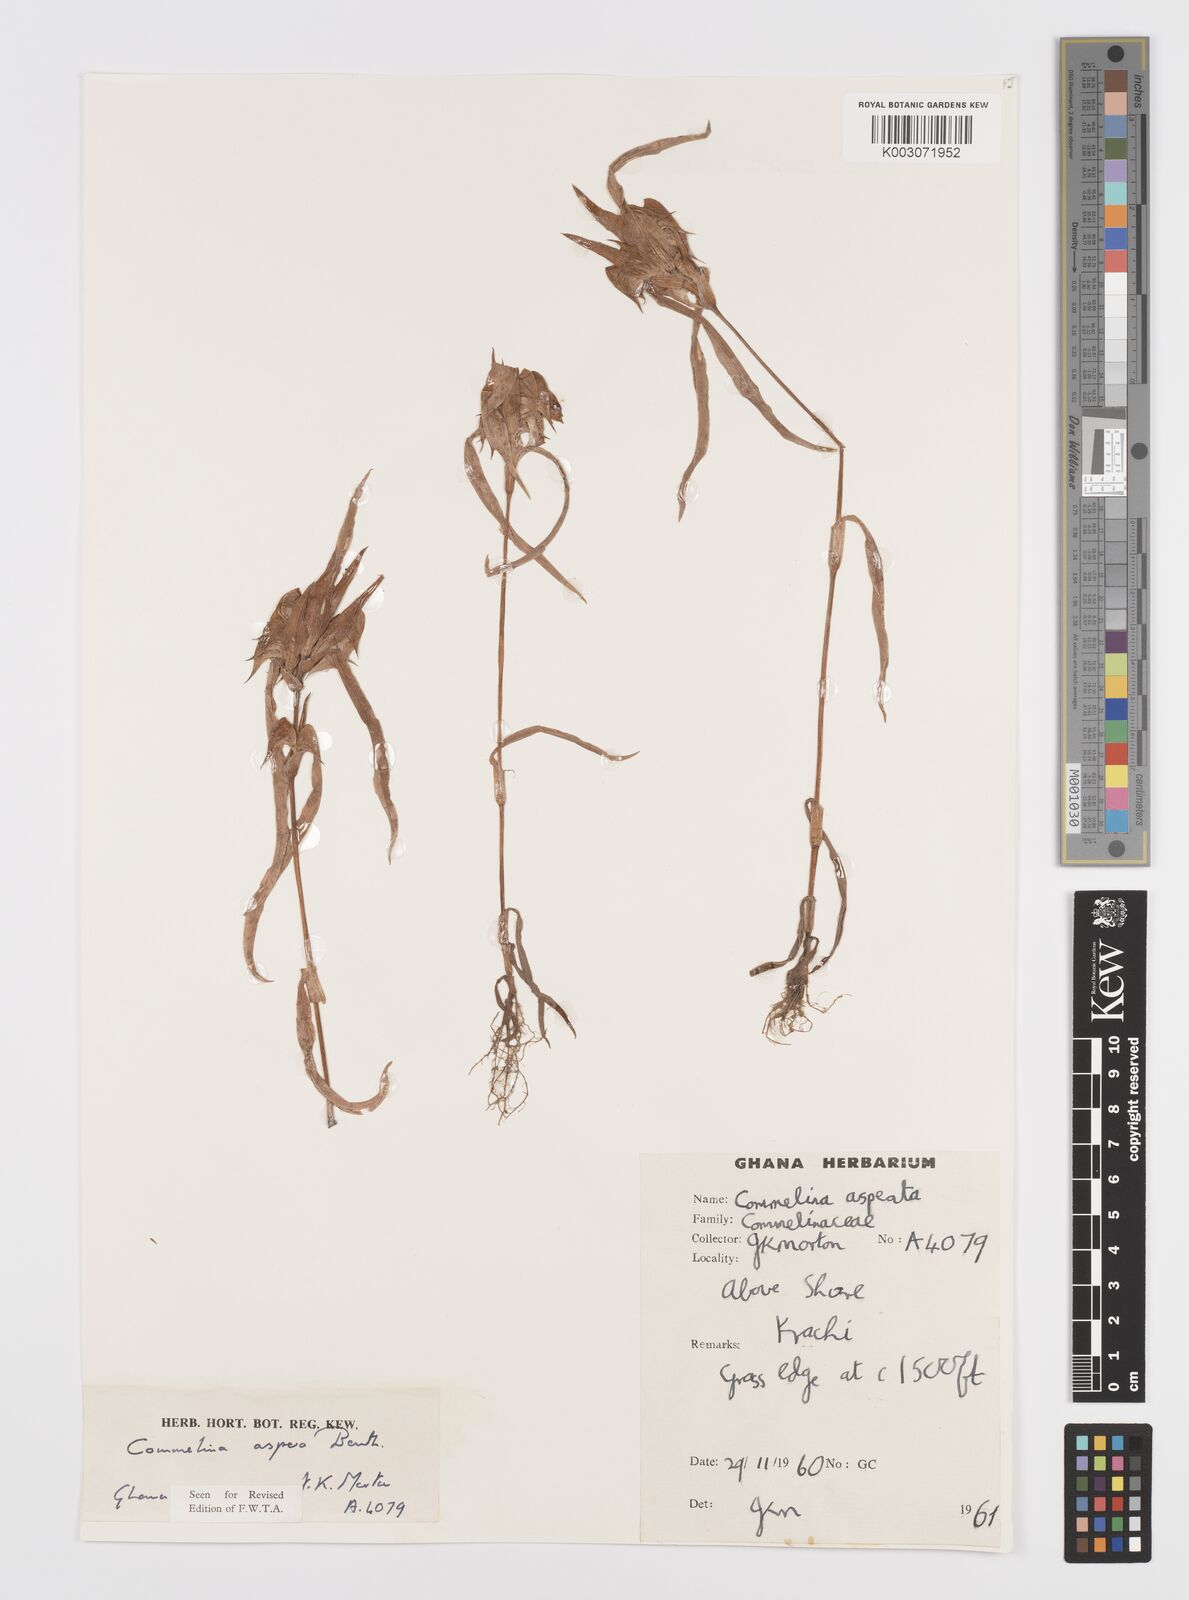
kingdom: Plantae
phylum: Tracheophyta
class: Liliopsida
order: Commelinales
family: Commelinaceae
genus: Commelina
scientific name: Commelina aspera
